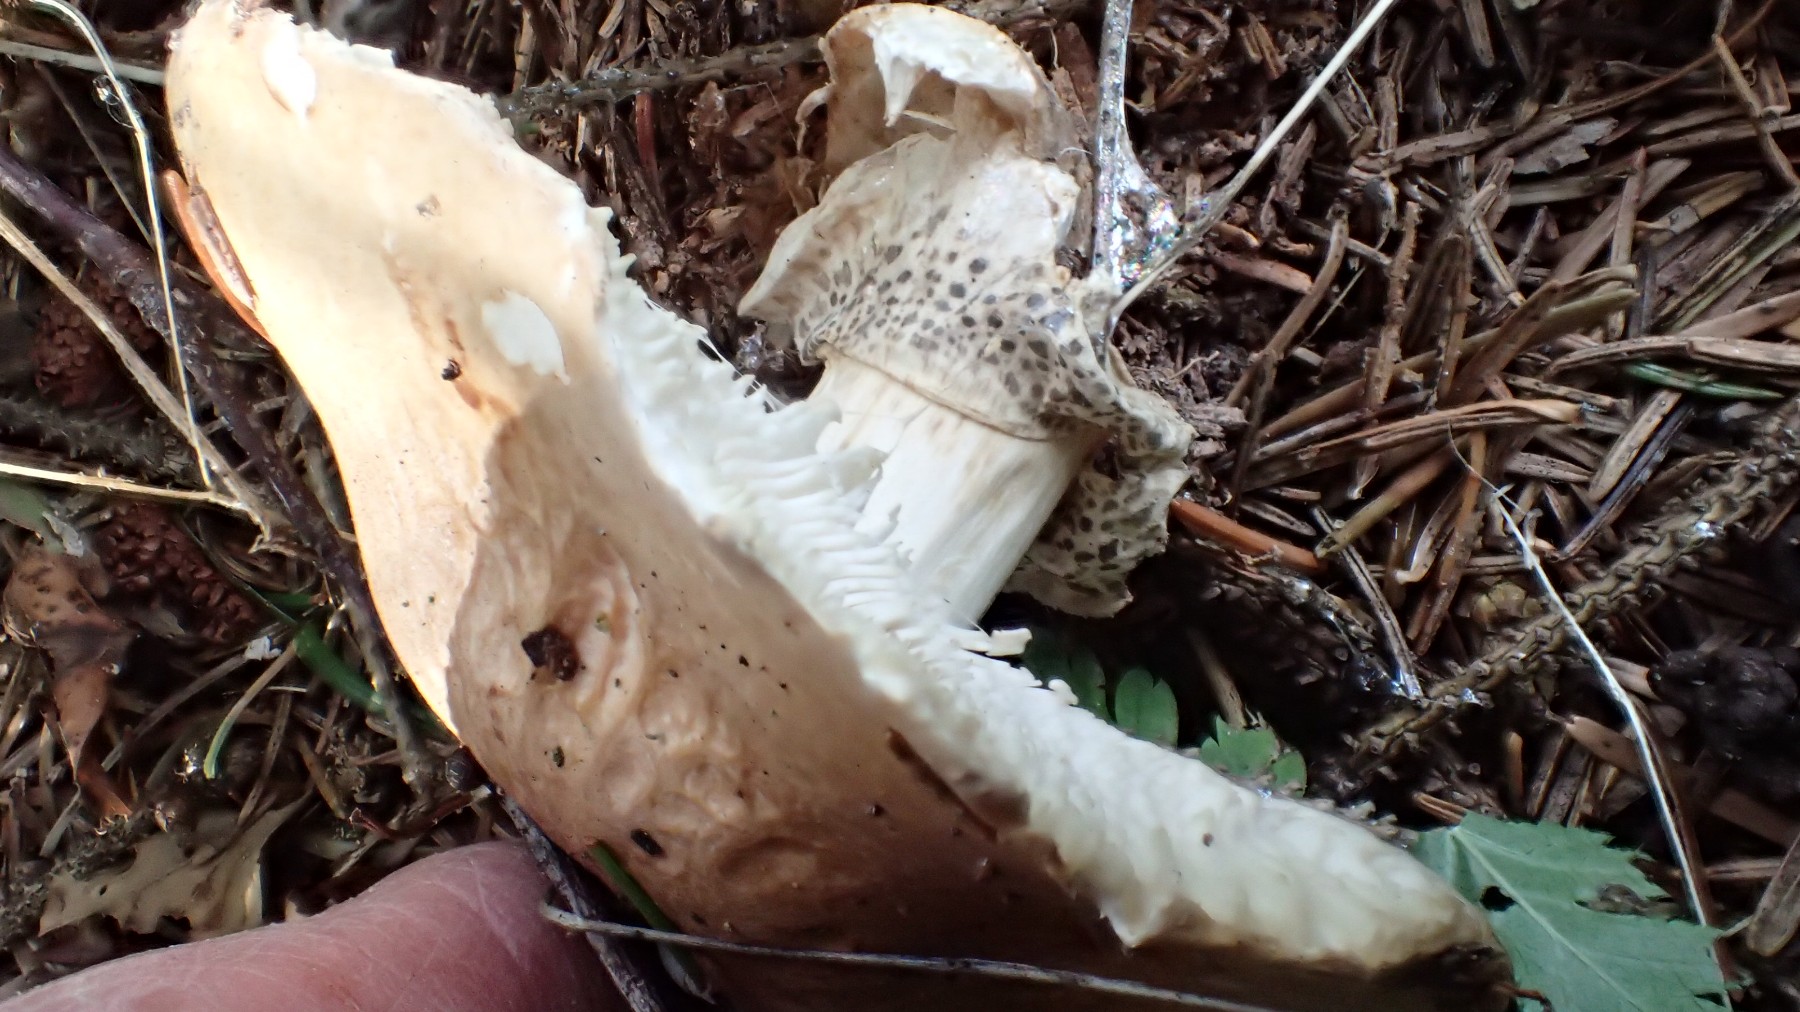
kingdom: Fungi
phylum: Basidiomycota
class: Agaricomycetes
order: Agaricales
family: Amanitaceae
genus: Limacellopsis
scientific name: Limacellopsis guttata
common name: tåre-snekkehat
